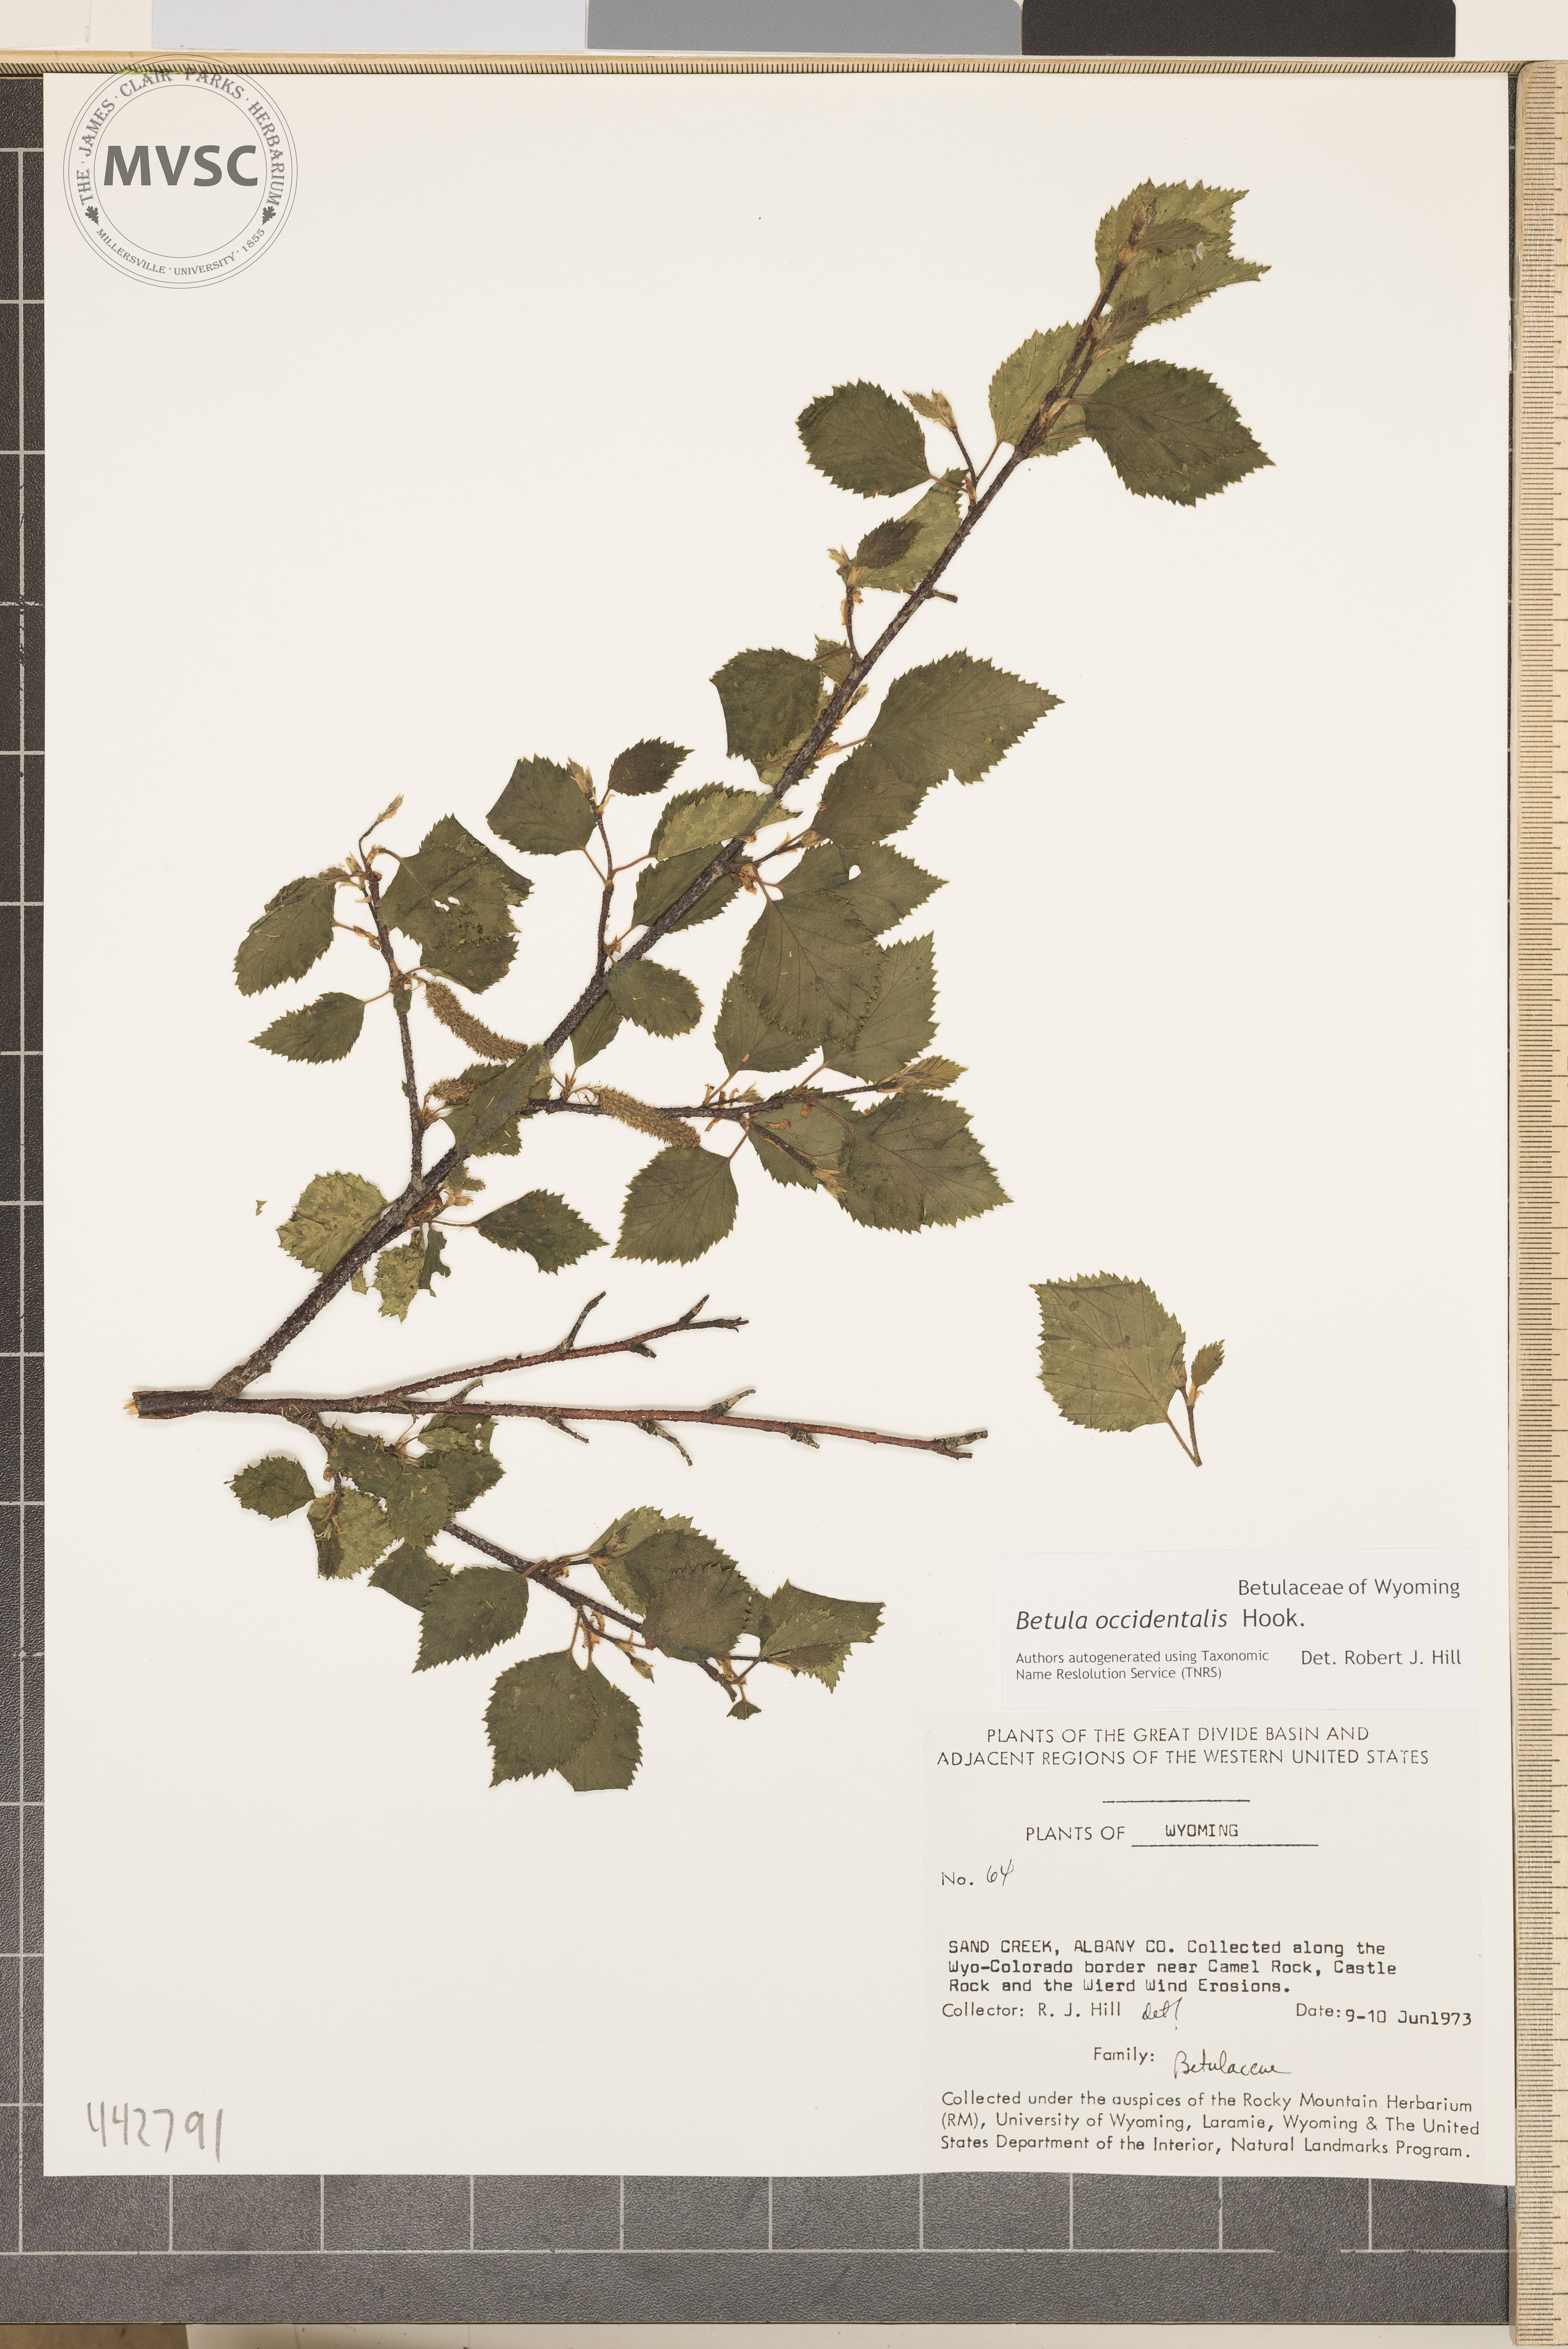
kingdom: Plantae
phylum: Tracheophyta
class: Magnoliopsida
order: Fagales
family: Betulaceae
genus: Betula
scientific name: Betula occidentalis
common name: River birch
